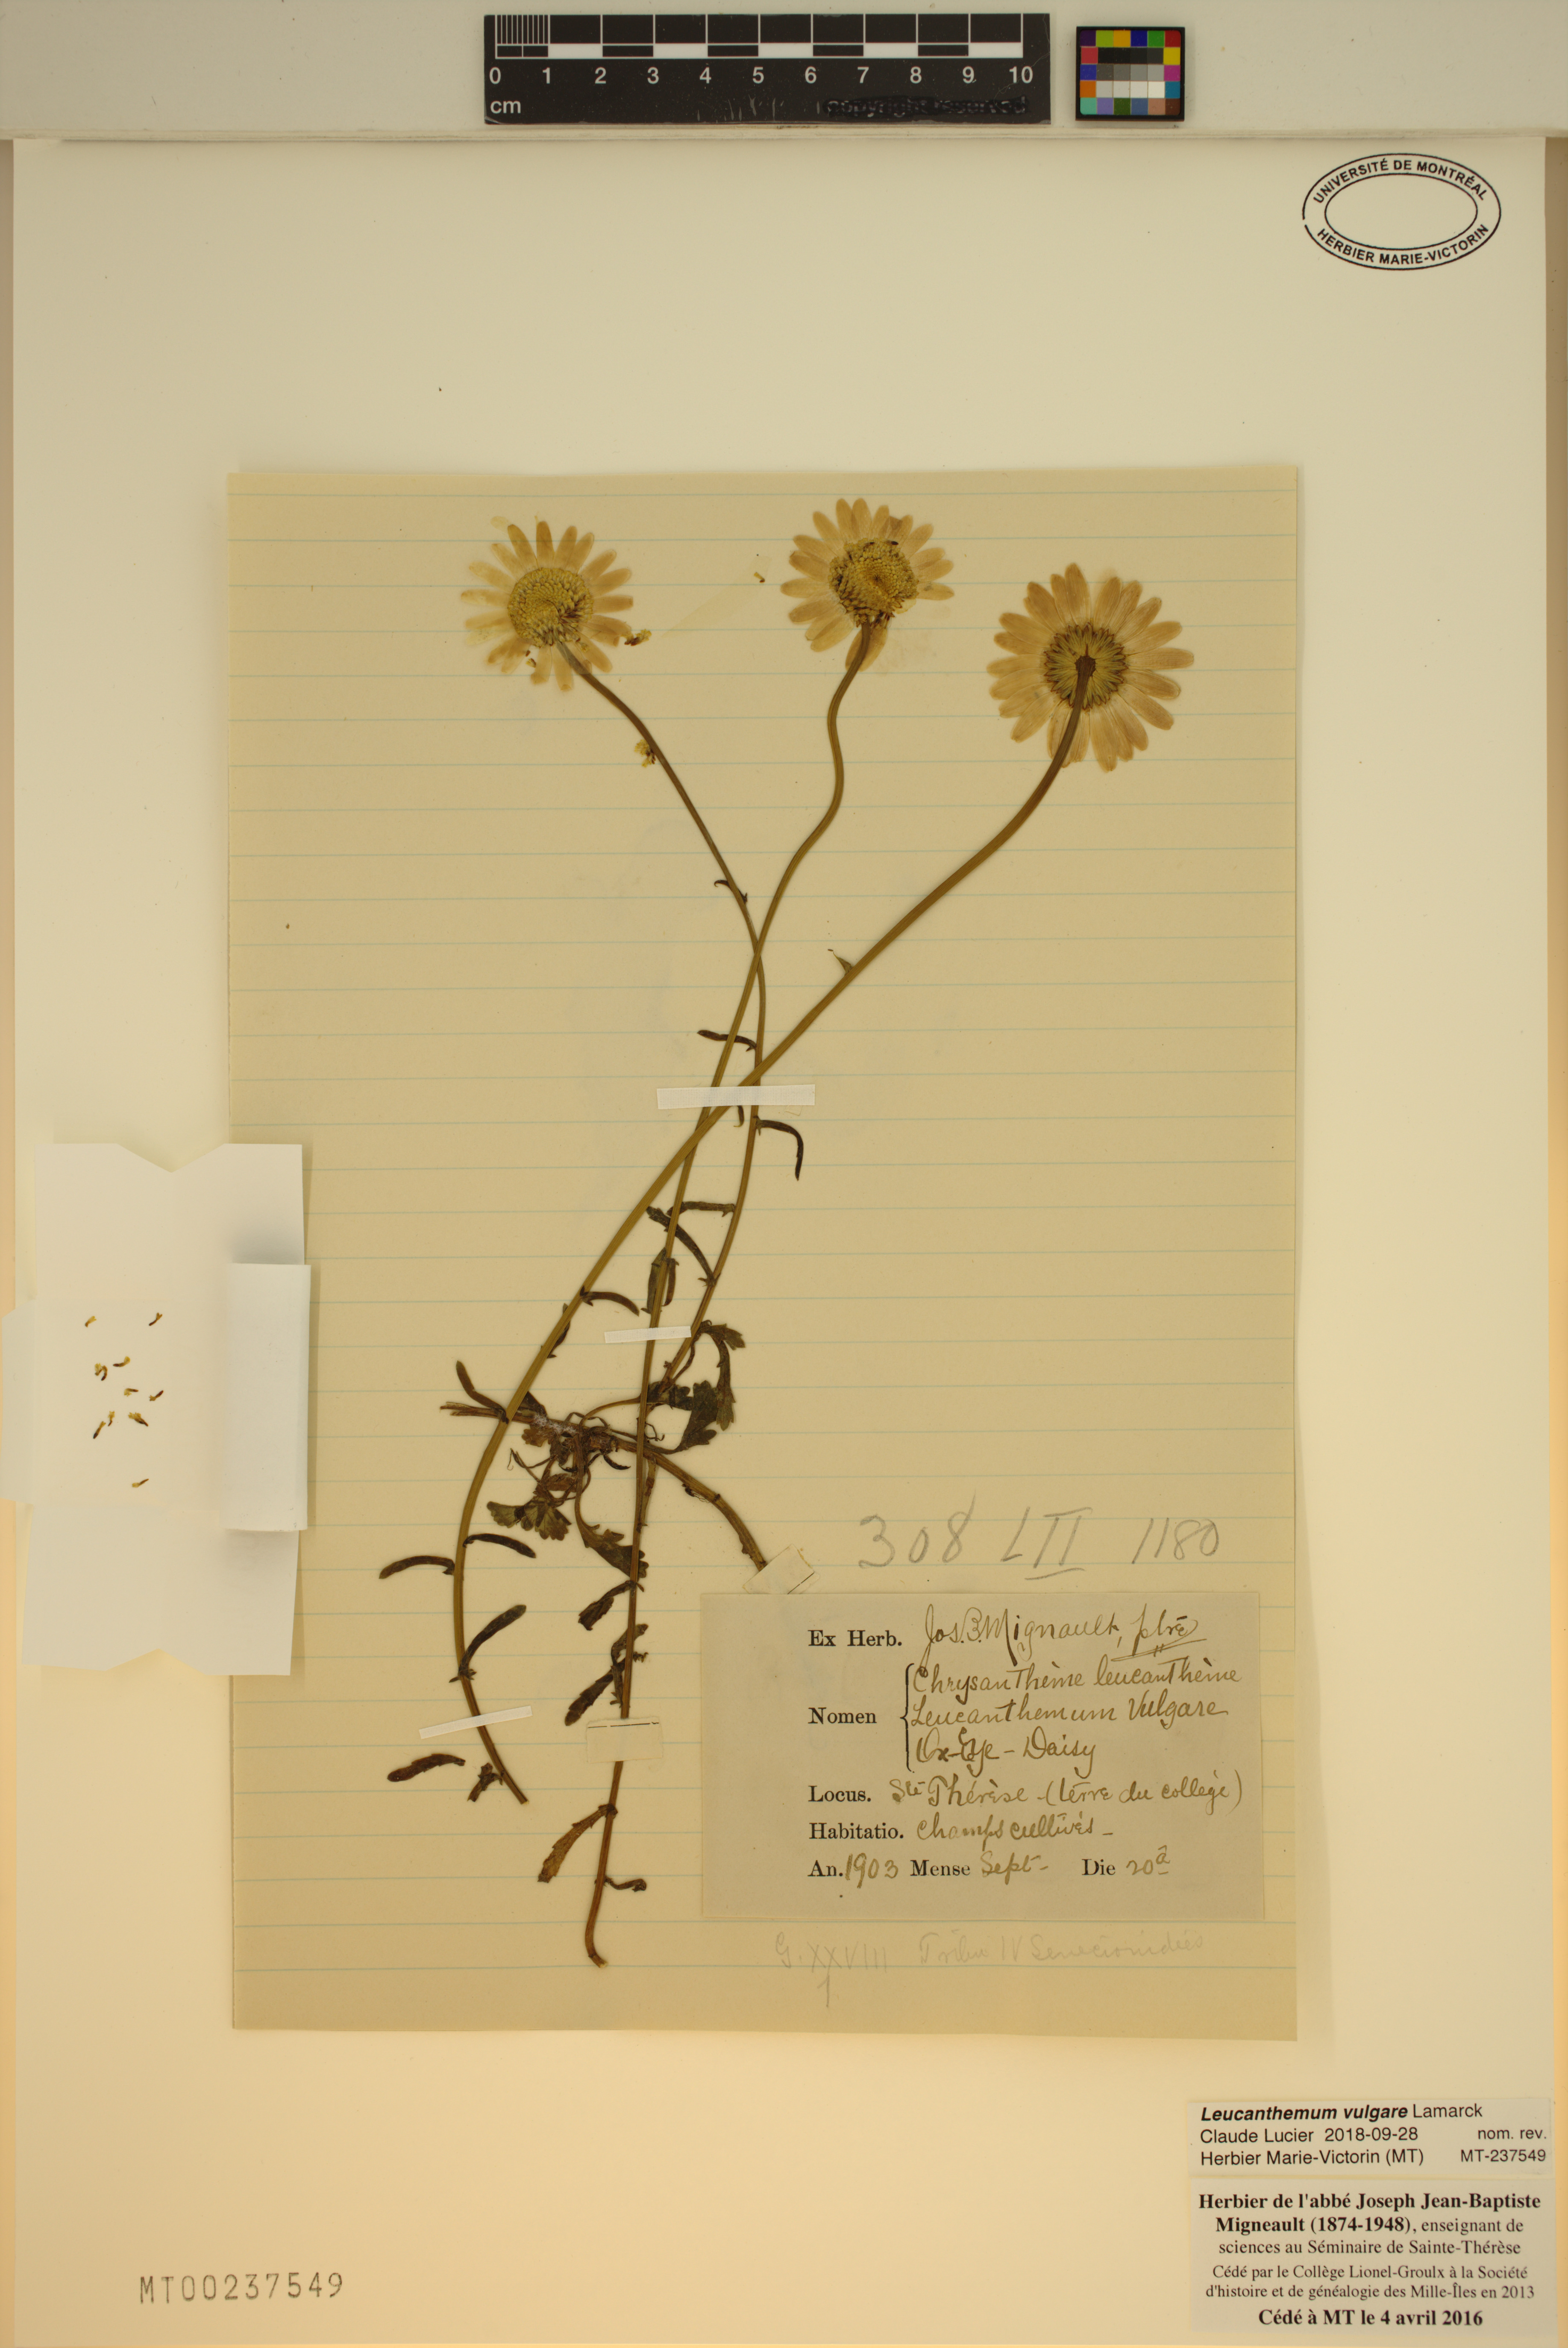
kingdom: Plantae
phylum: Tracheophyta
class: Magnoliopsida
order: Asterales
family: Asteraceae
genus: Leucanthemum
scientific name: Leucanthemum vulgare
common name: Oxeye daisy
